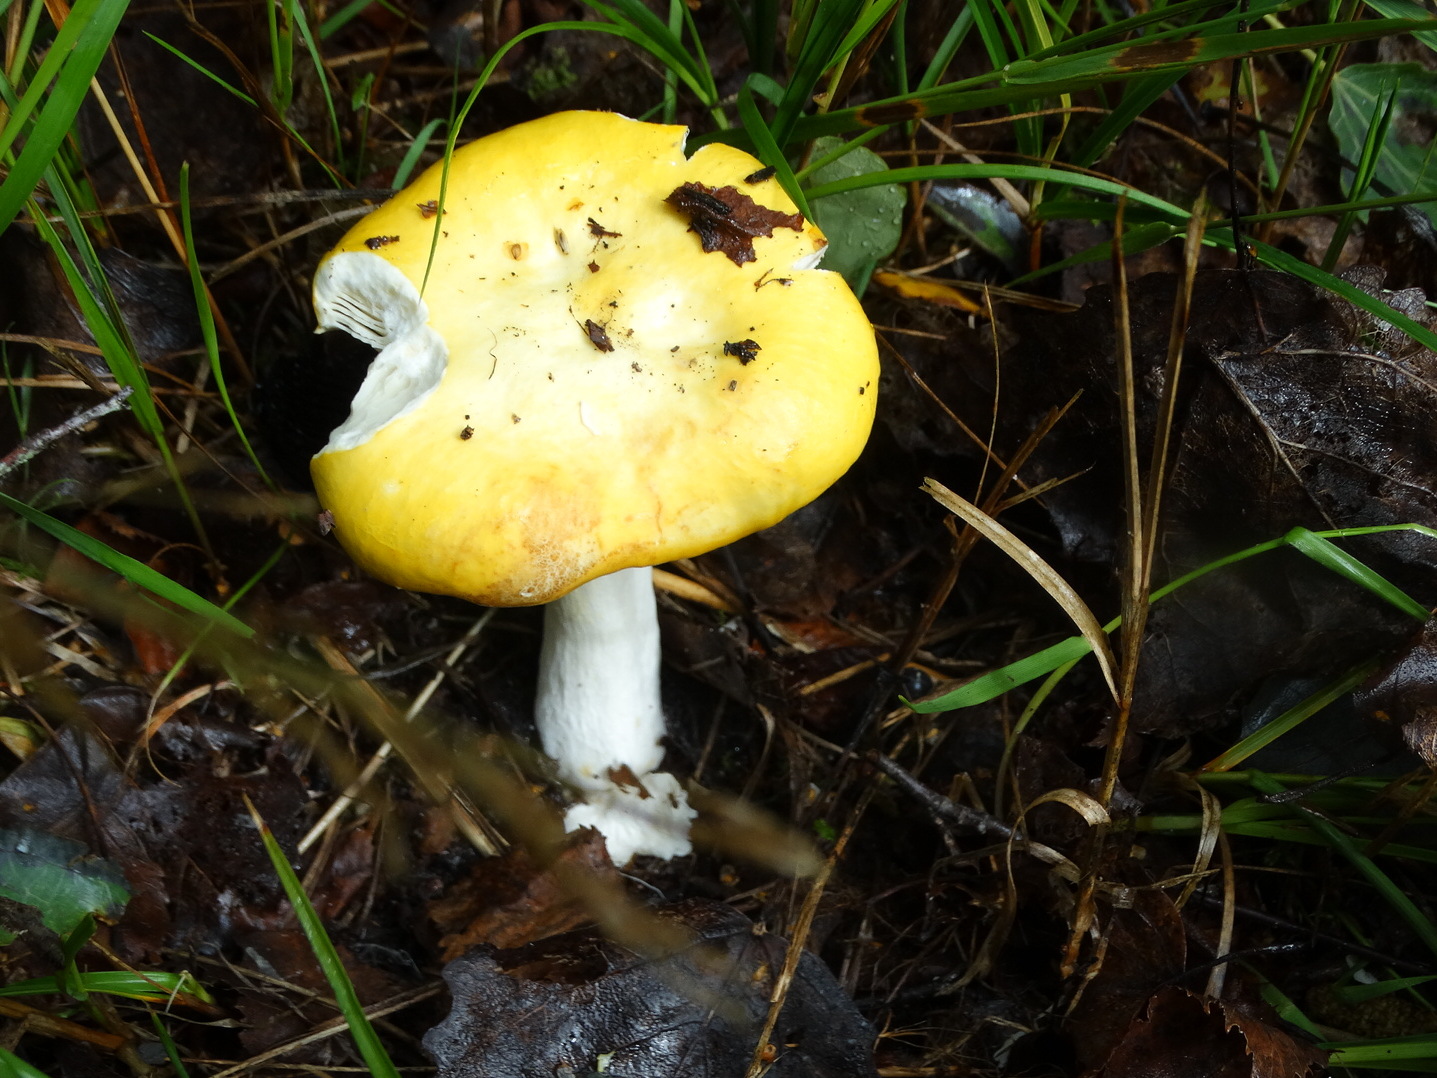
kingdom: Fungi
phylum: Basidiomycota
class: Agaricomycetes
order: Russulales
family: Russulaceae
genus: Russula
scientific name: Russula claroflava
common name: birke-skørhat
